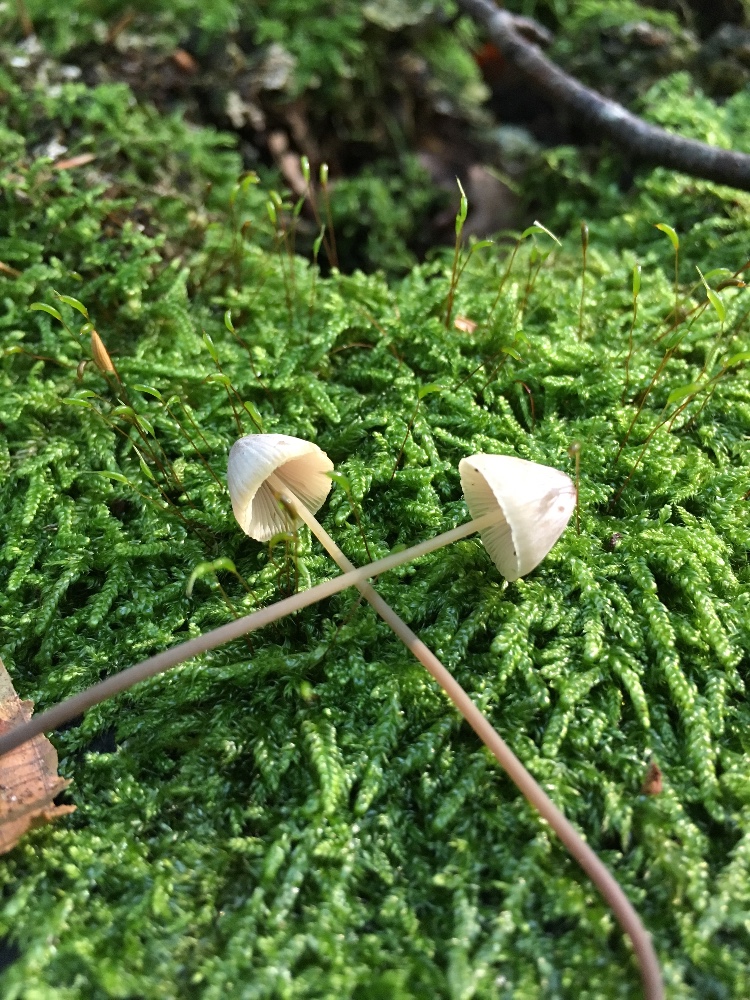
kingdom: Fungi
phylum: Basidiomycota
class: Agaricomycetes
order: Agaricales
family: Mycenaceae
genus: Mycena
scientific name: Mycena filopes
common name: jod-huesvamp
